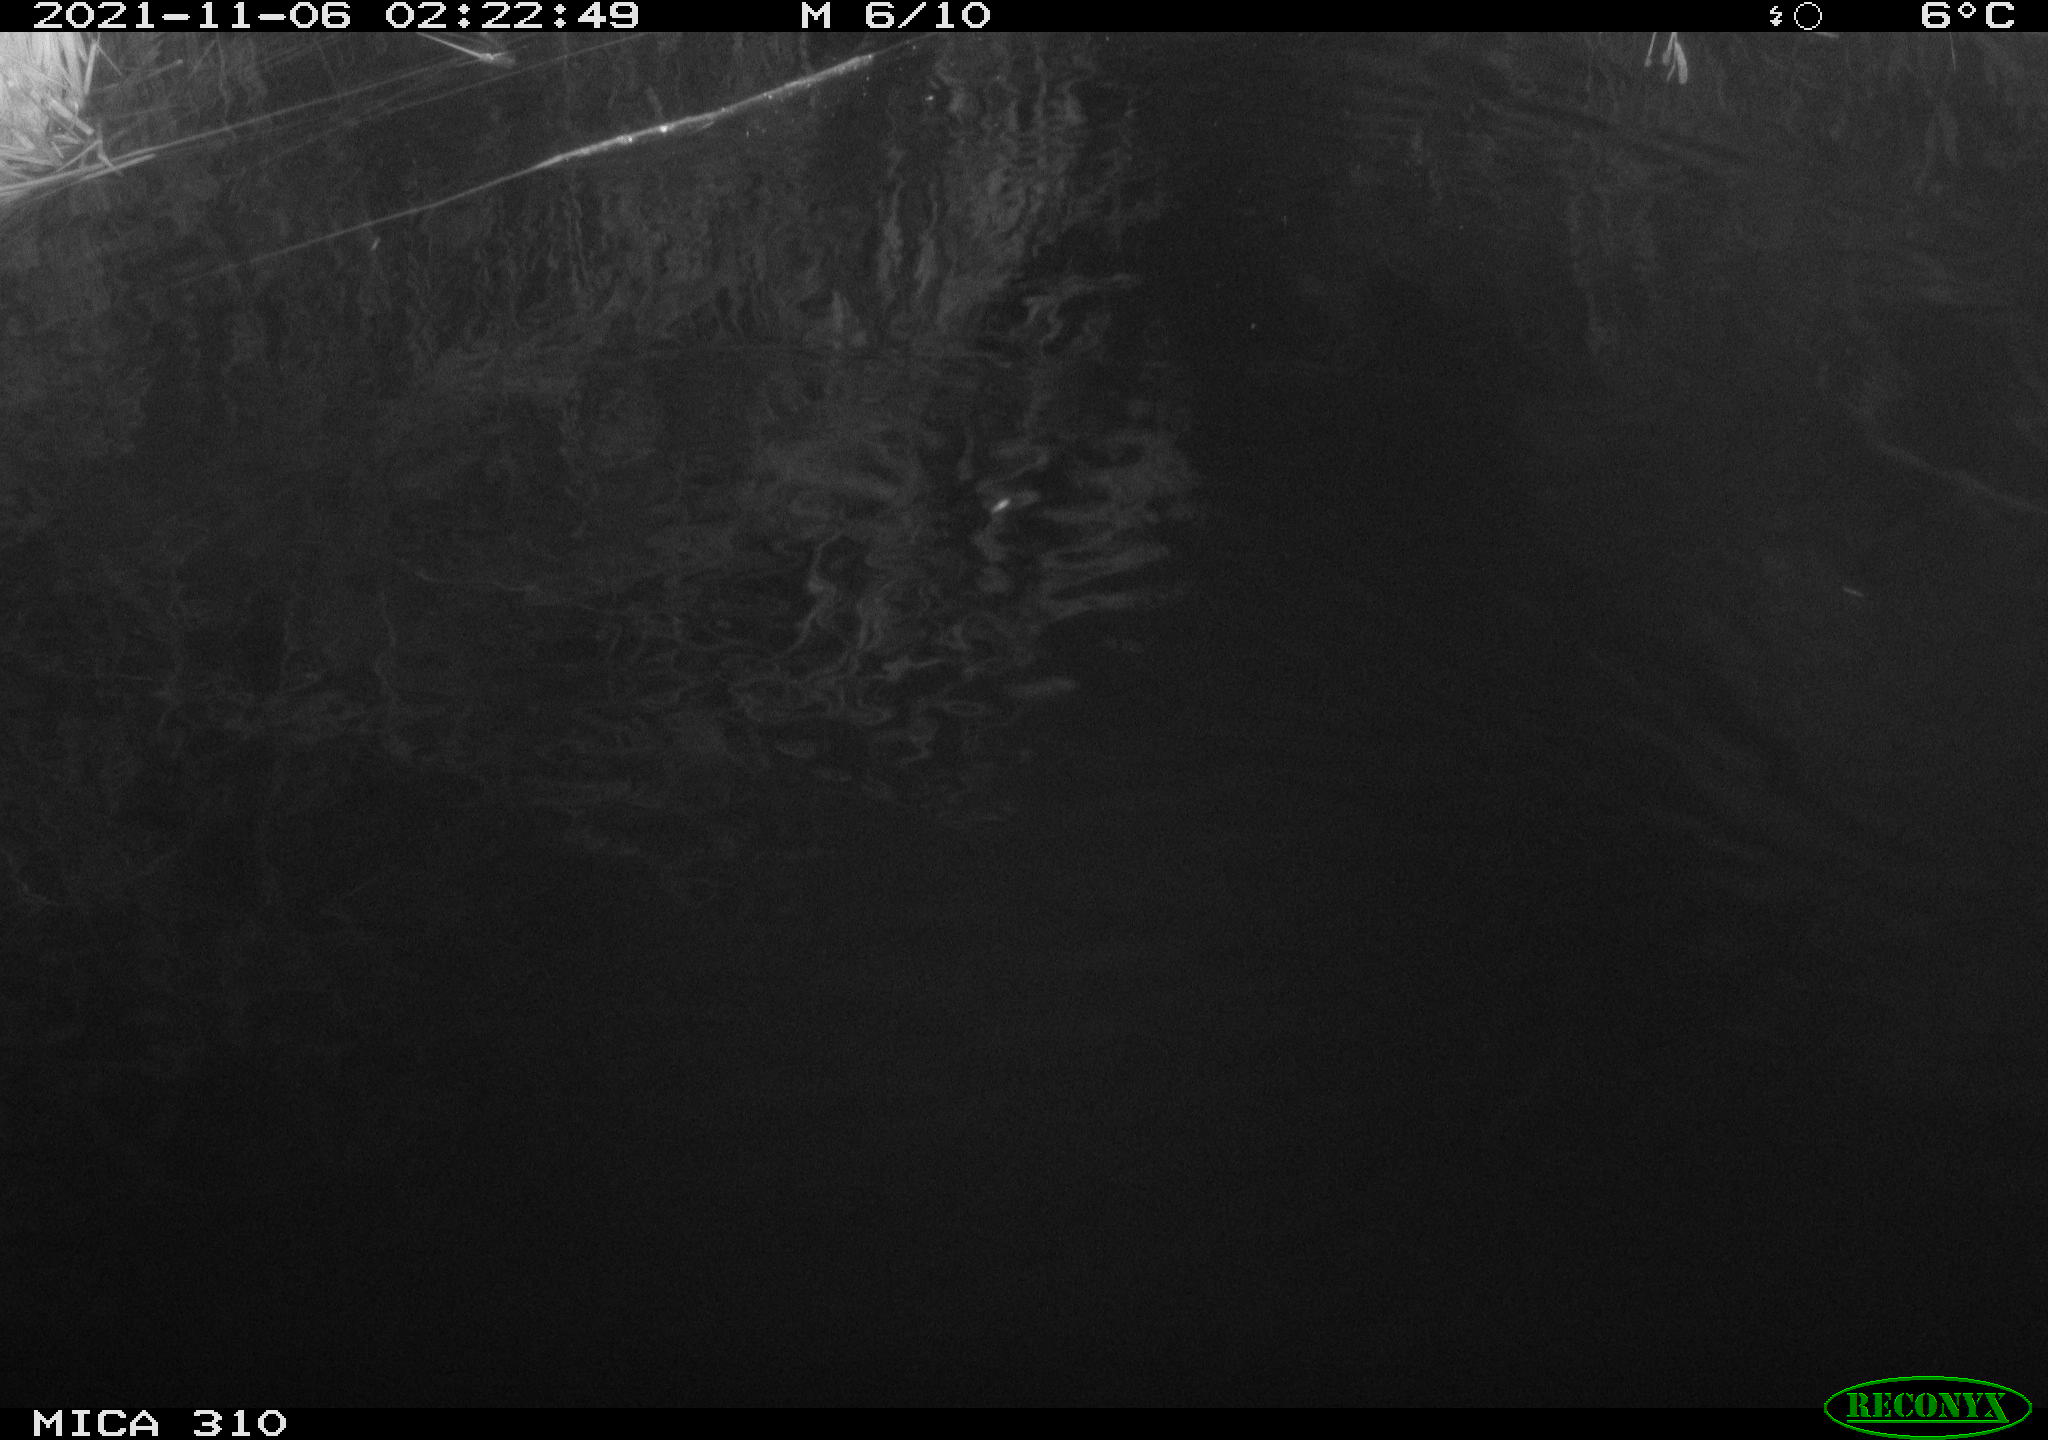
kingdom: Animalia
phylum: Chordata
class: Mammalia
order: Rodentia
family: Muridae
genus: Rattus
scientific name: Rattus norvegicus
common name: Brown rat
